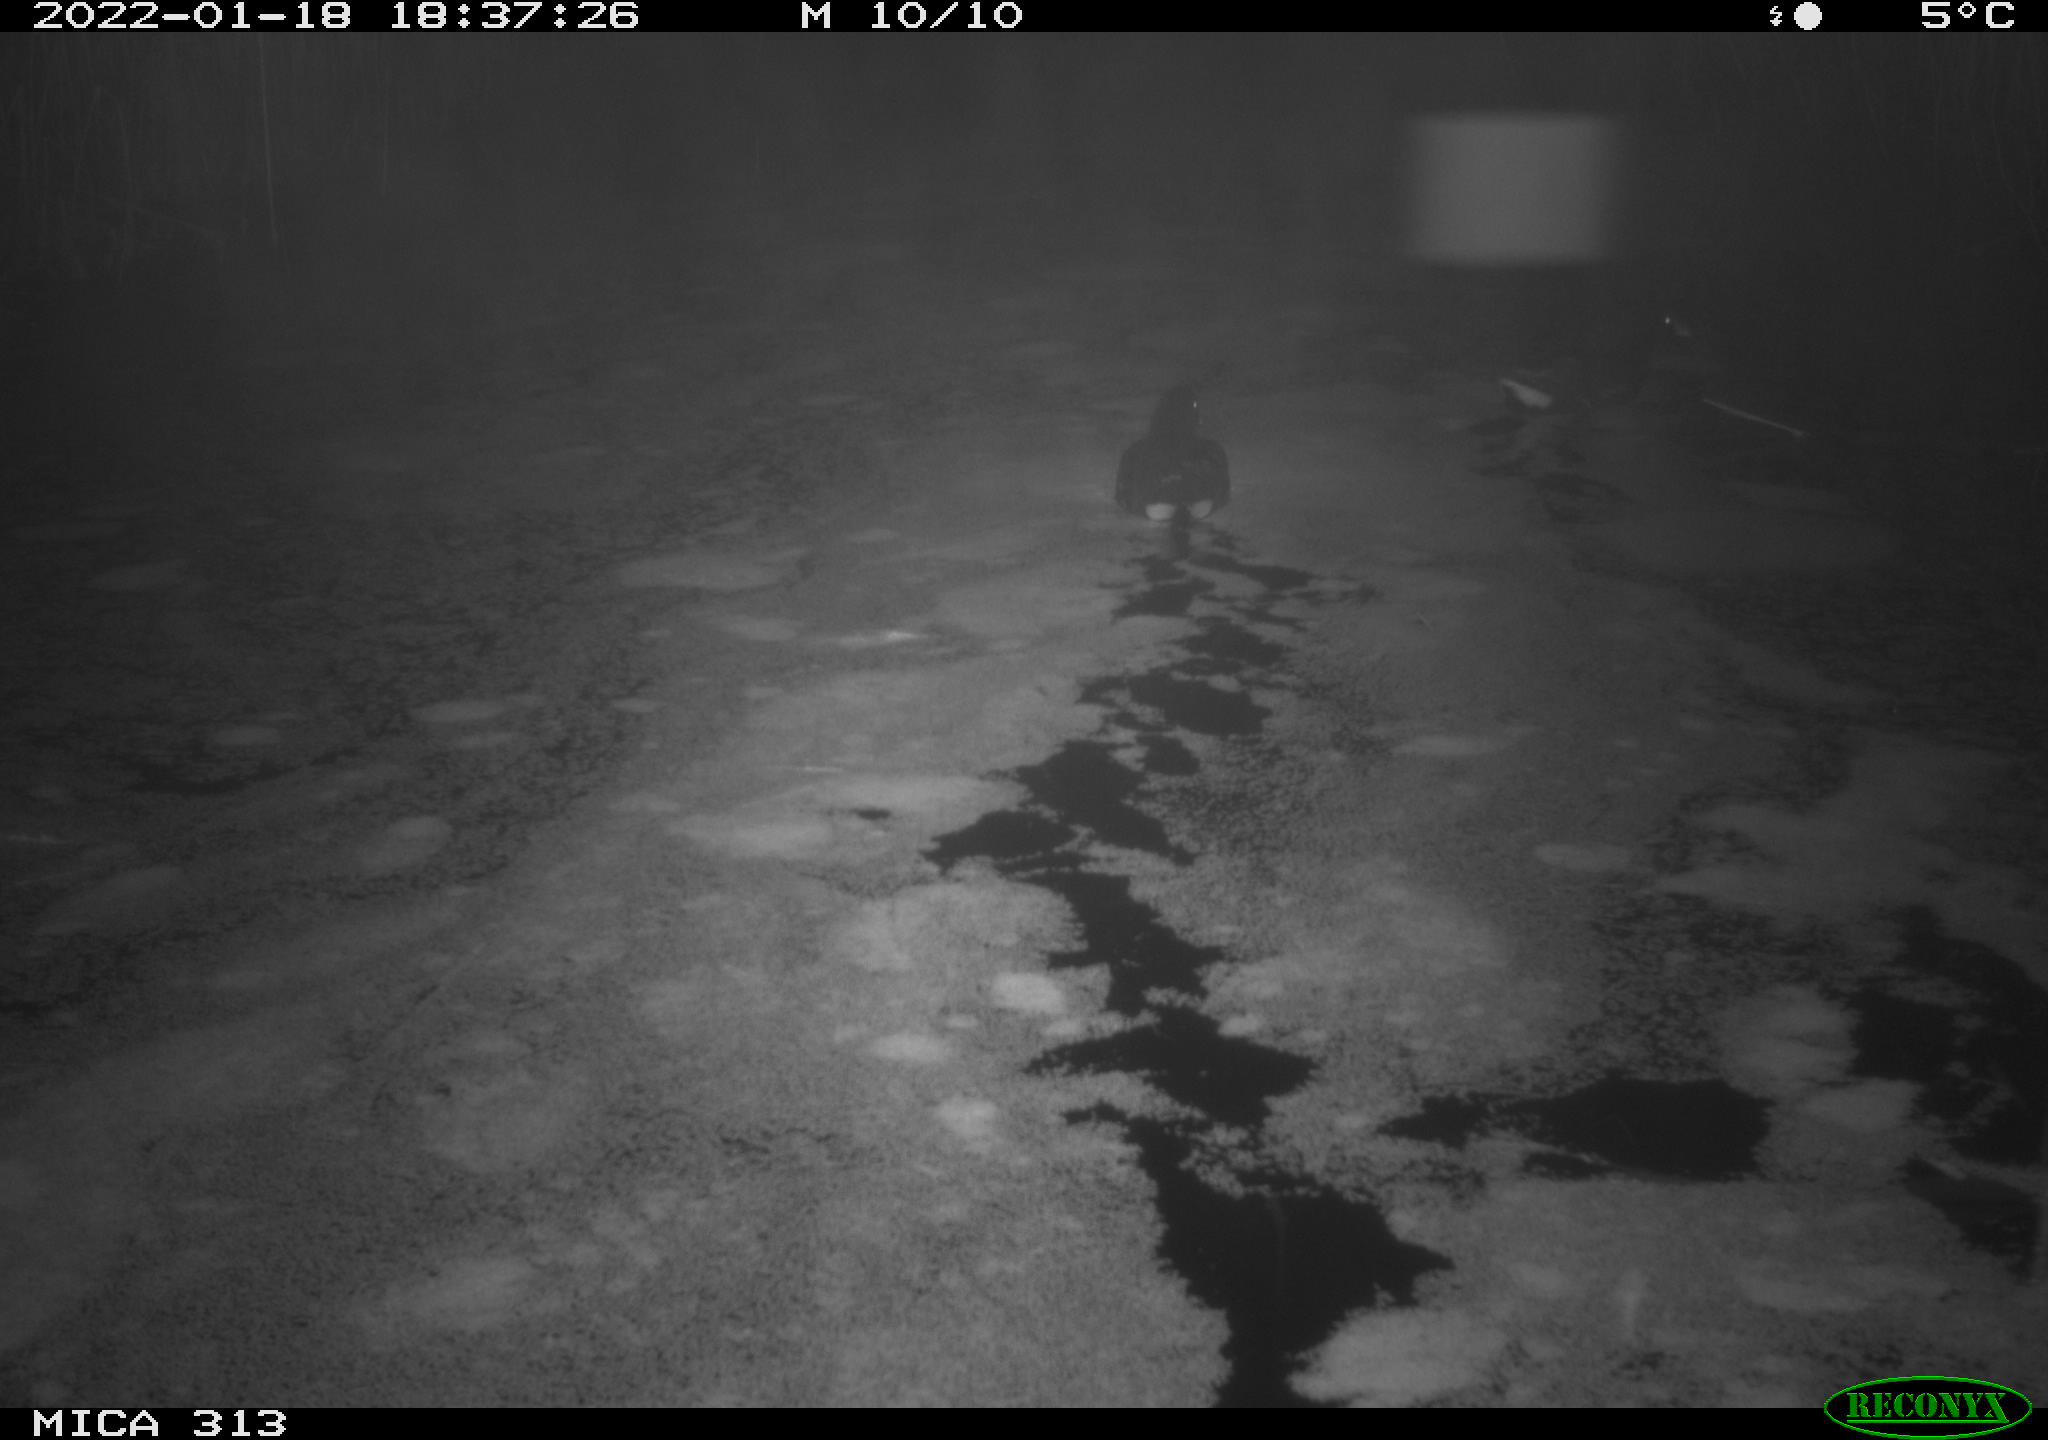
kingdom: Animalia
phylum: Chordata
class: Aves
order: Gruiformes
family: Rallidae
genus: Gallinula
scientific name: Gallinula chloropus
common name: Common moorhen
